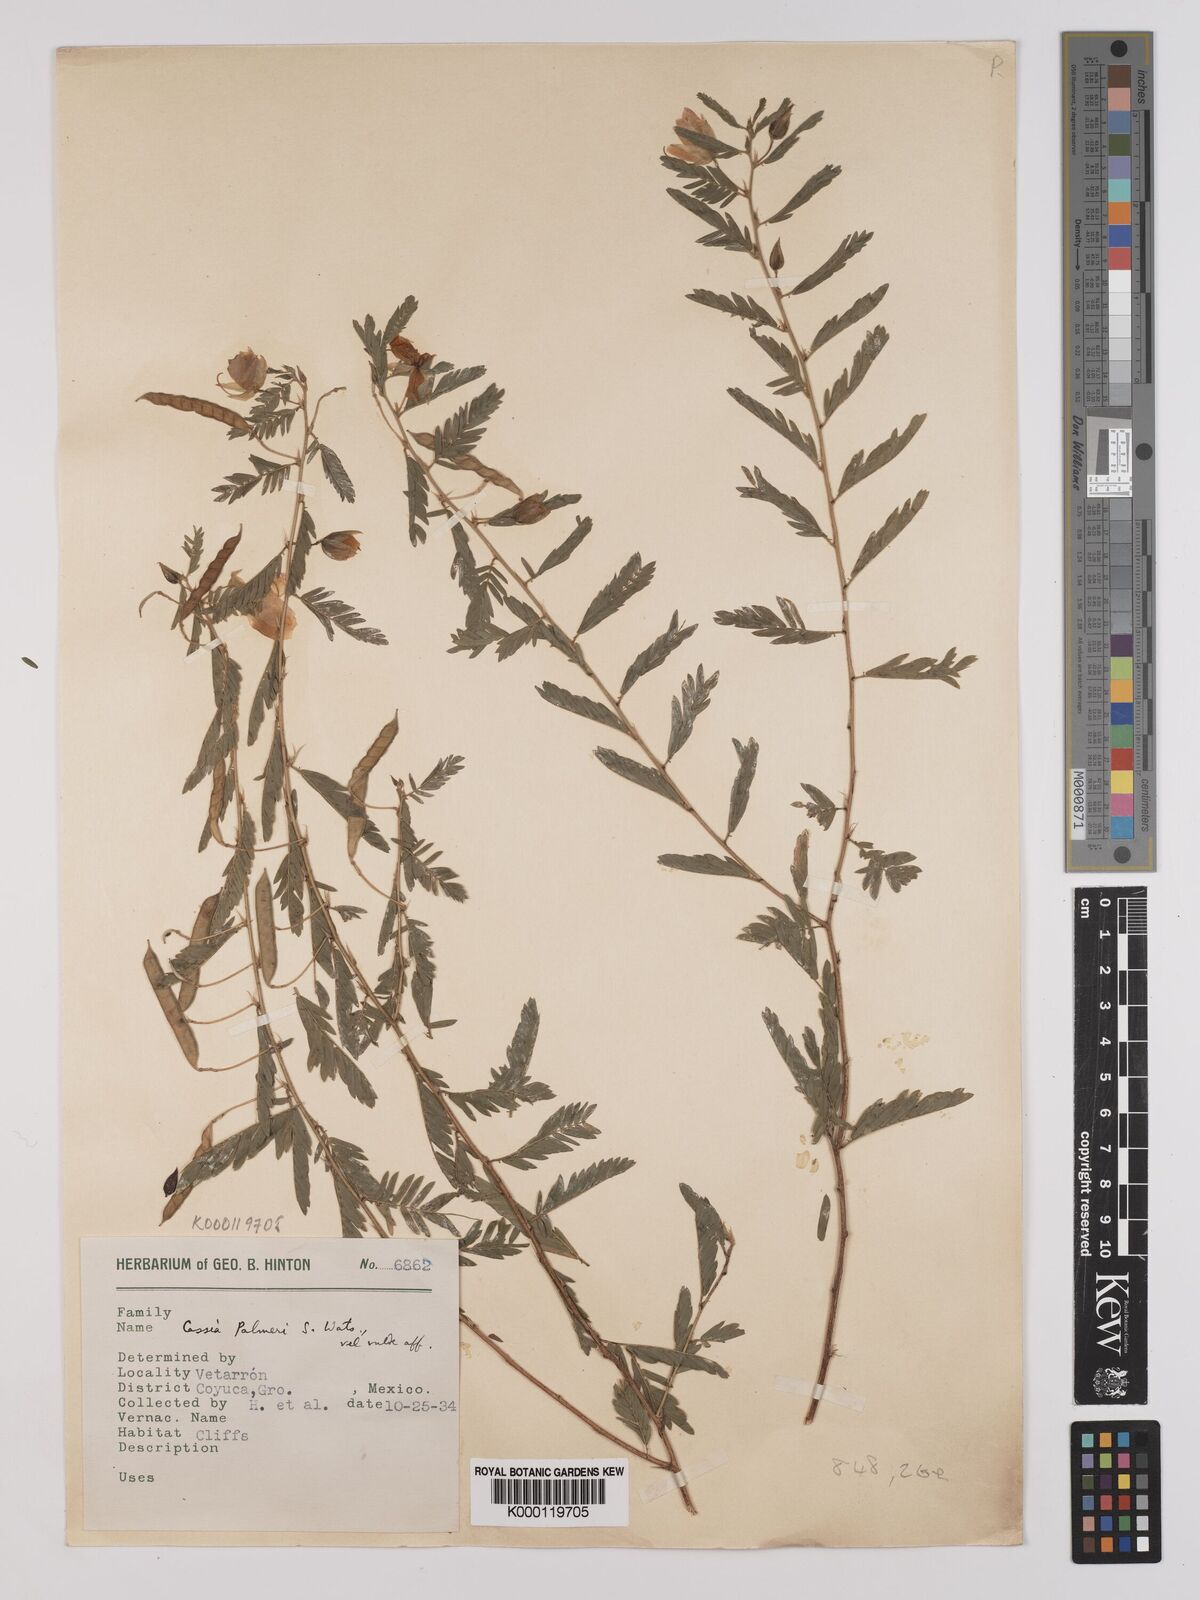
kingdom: Plantae
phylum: Tracheophyta
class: Magnoliopsida
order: Fabales
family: Fabaceae
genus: Chamaecrista
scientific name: Chamaecrista serpens
